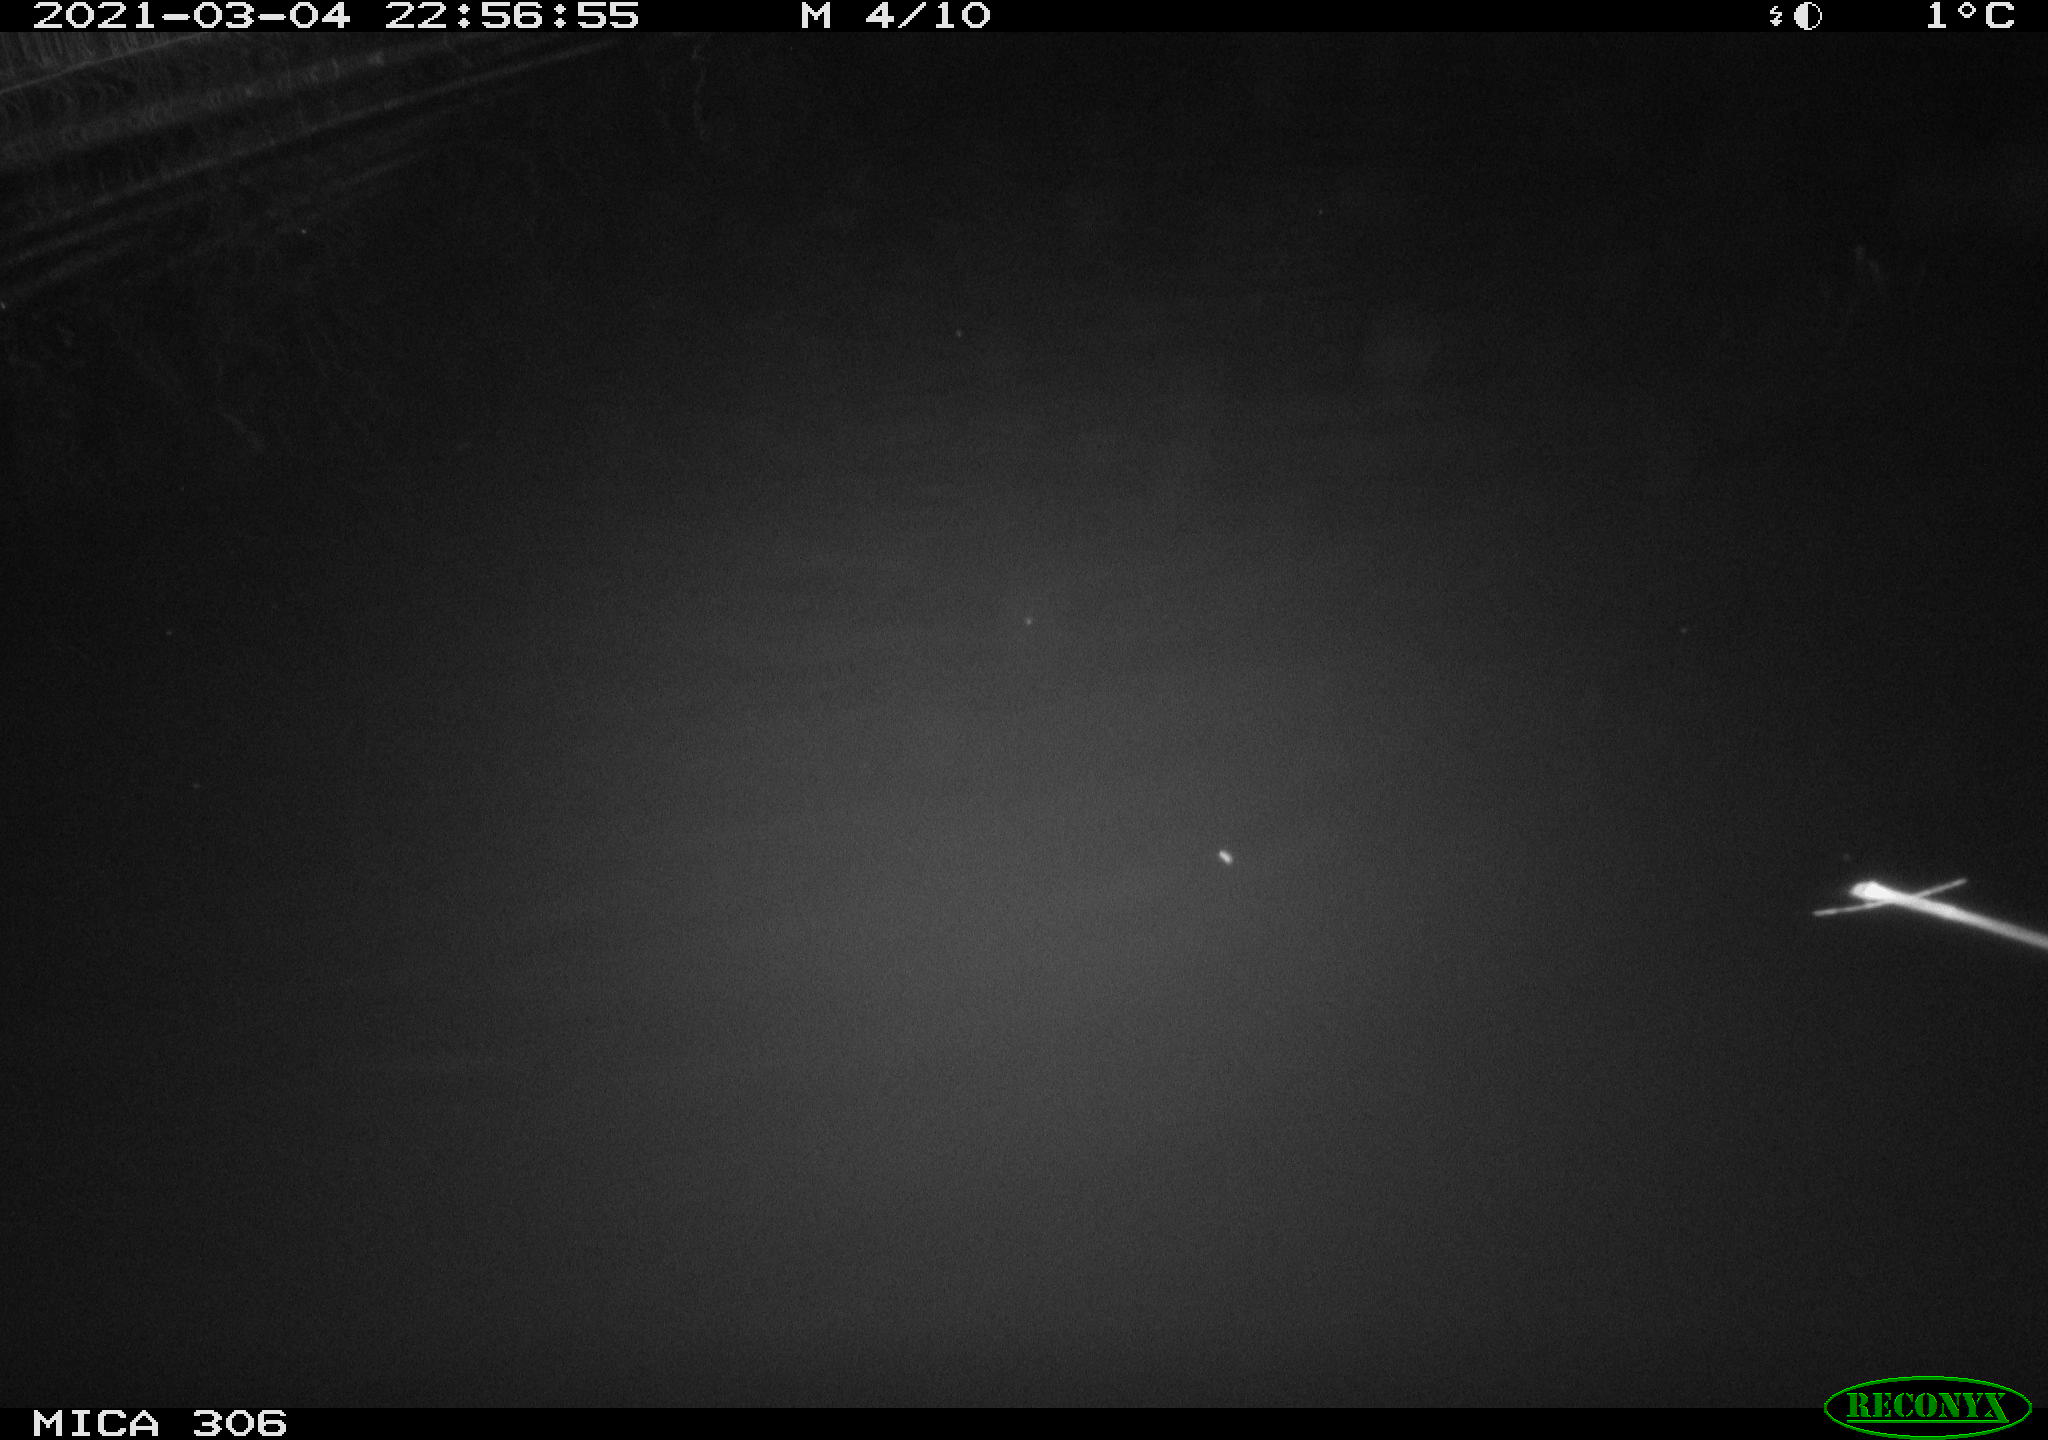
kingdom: Animalia
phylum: Chordata
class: Mammalia
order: Rodentia
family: Cricetidae
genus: Ondatra
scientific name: Ondatra zibethicus
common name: Muskrat
